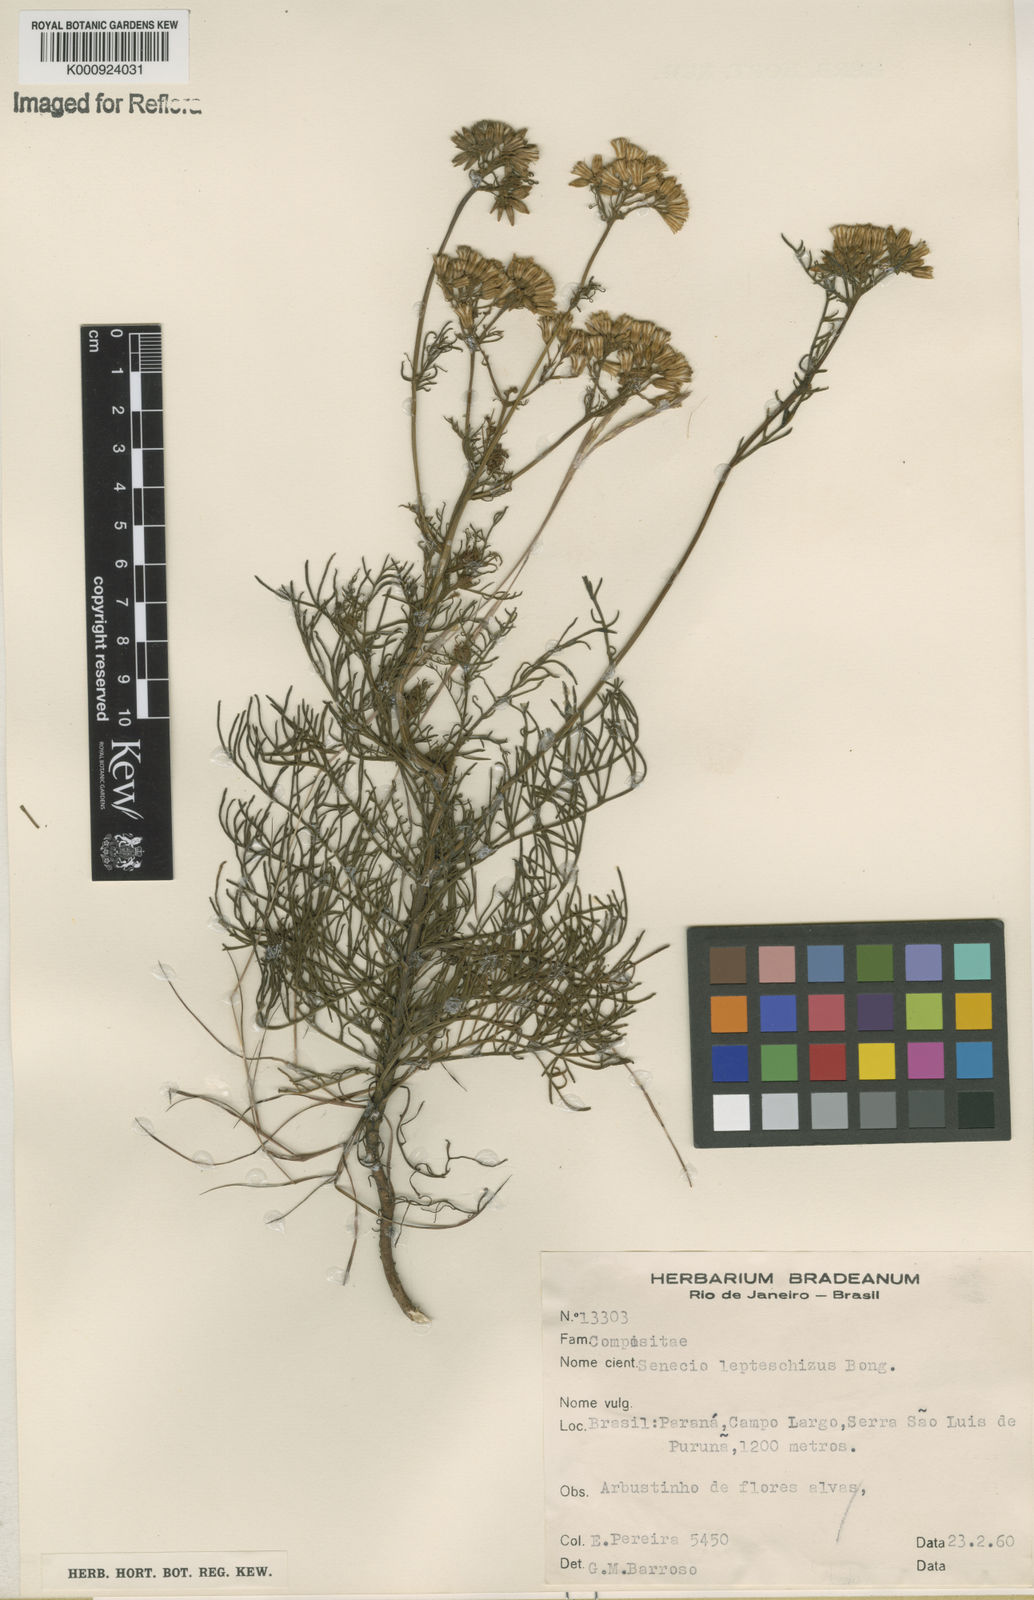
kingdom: Plantae
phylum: Tracheophyta
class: Magnoliopsida
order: Asterales
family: Asteraceae
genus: Senecio
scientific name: Senecio leptoschizus
